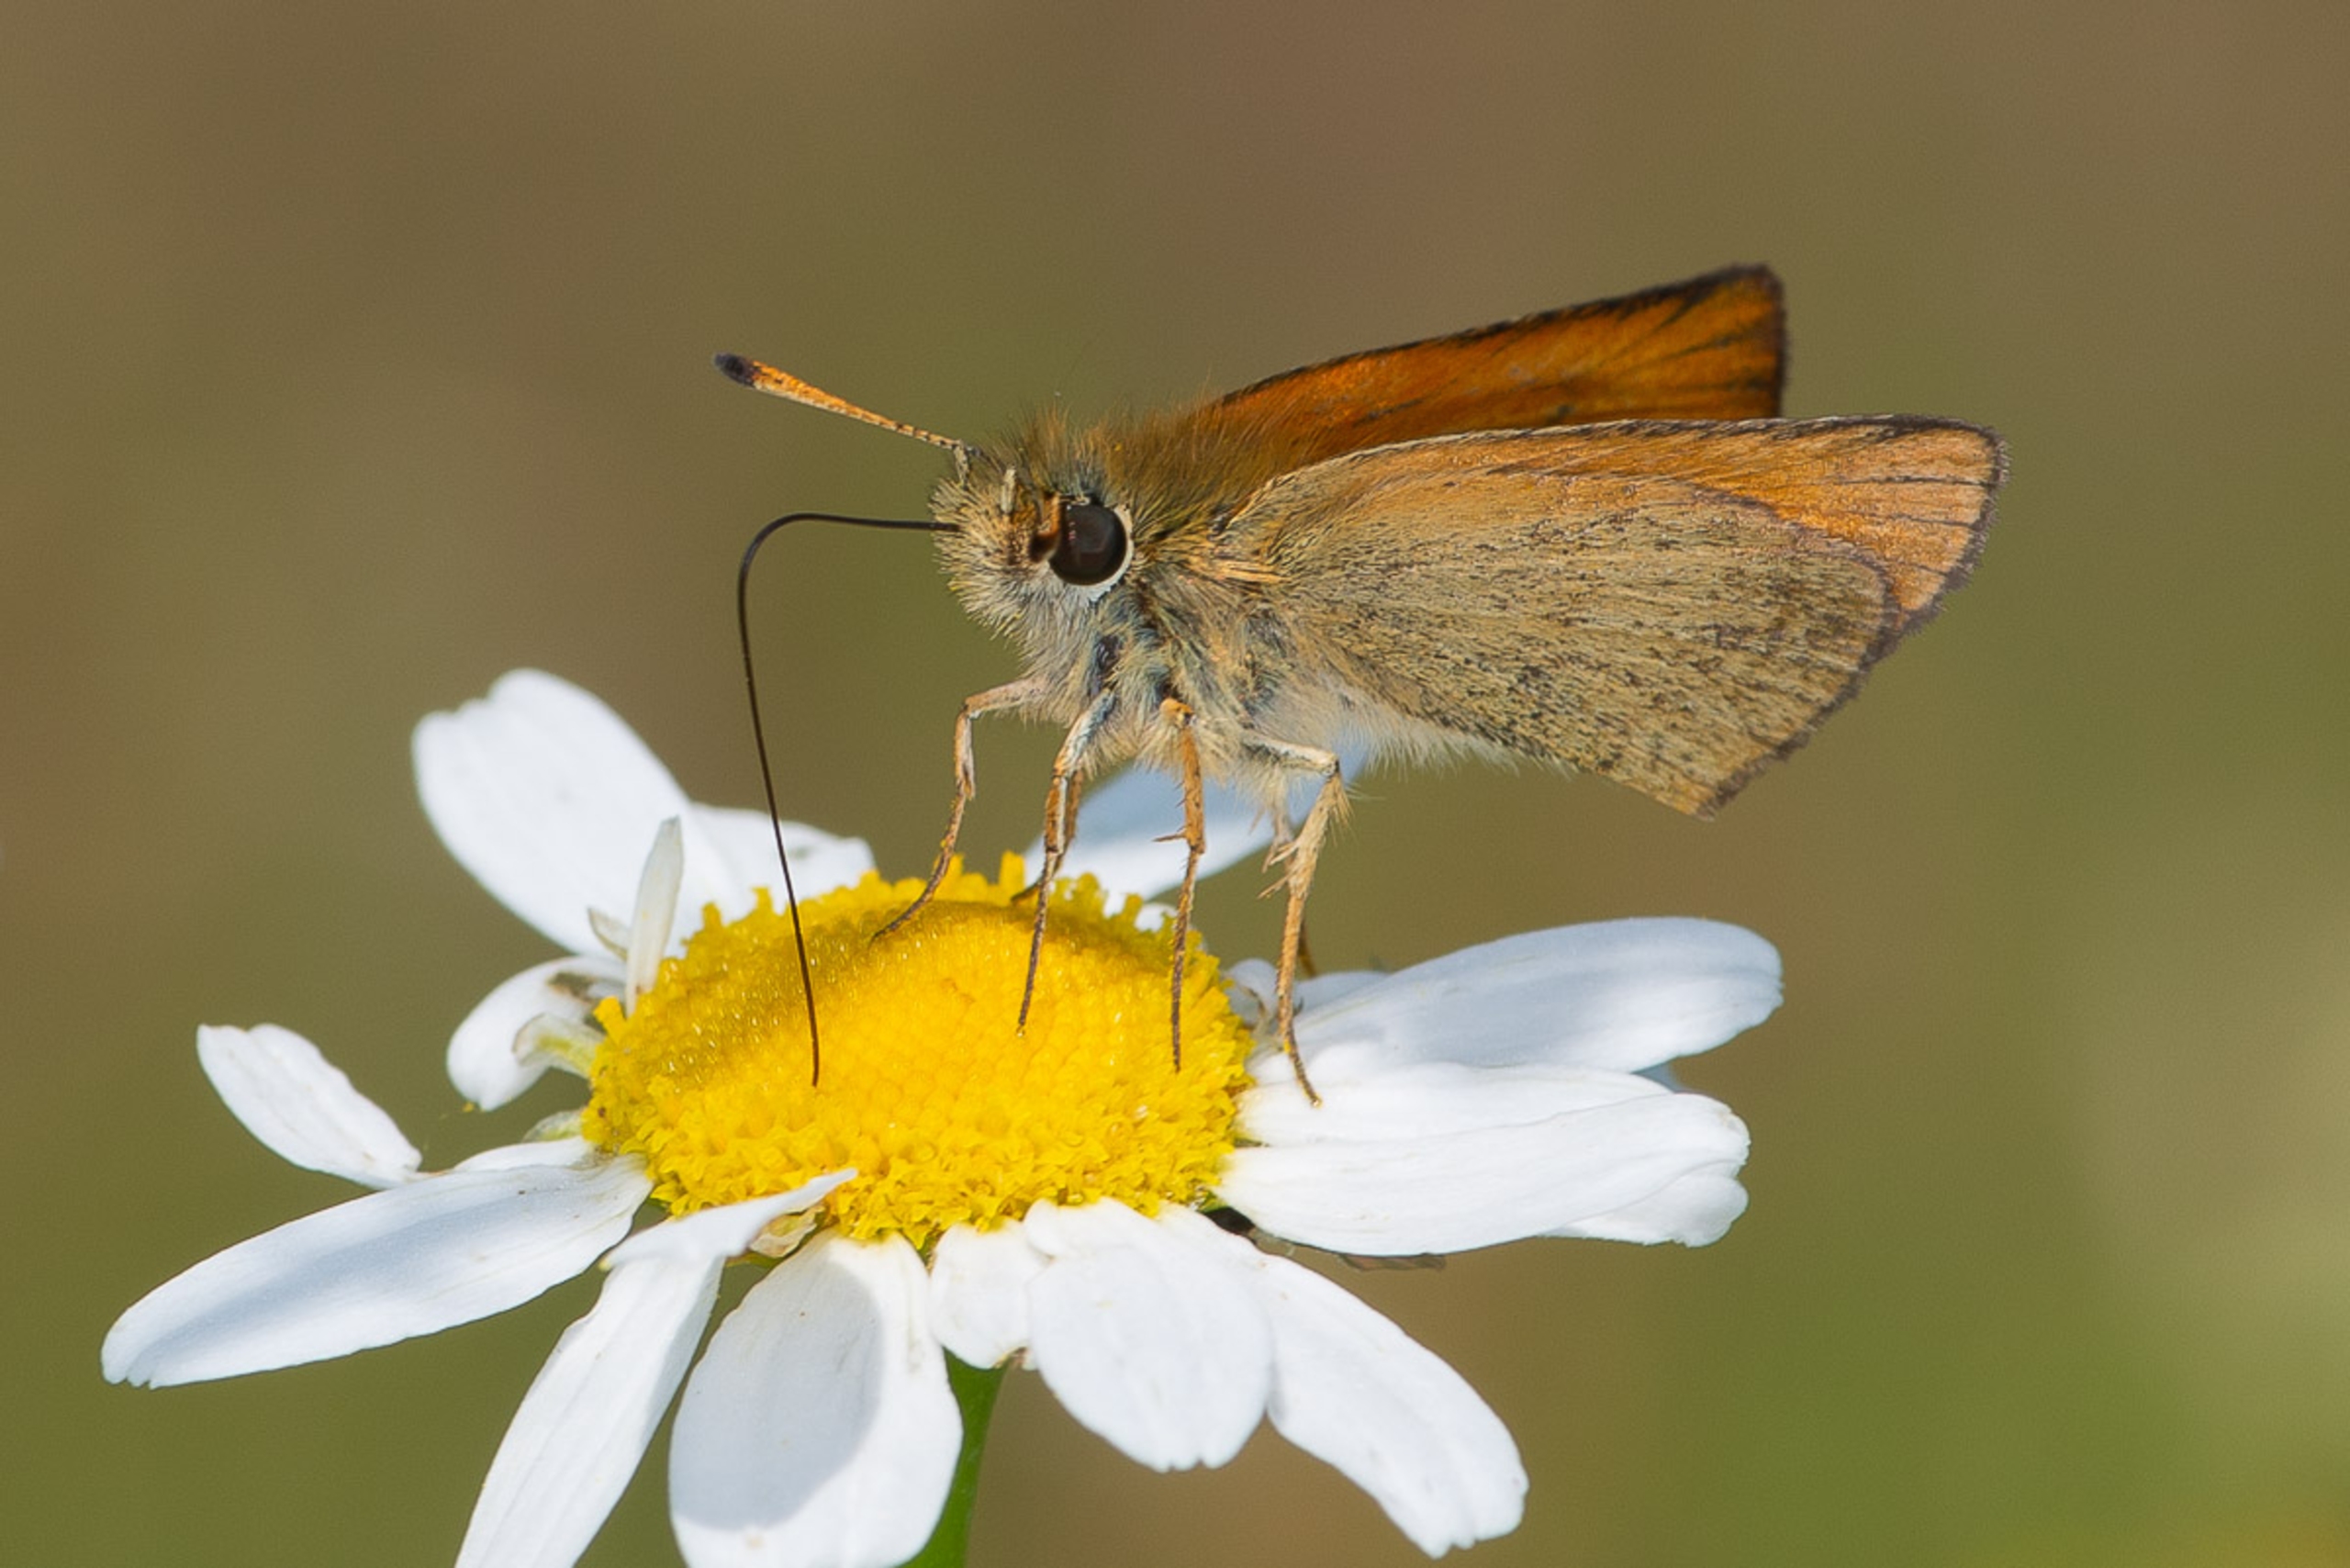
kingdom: Animalia
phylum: Arthropoda
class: Insecta
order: Lepidoptera
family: Hesperiidae
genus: Thymelicus
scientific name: Thymelicus lineola
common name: Stregbredpande
